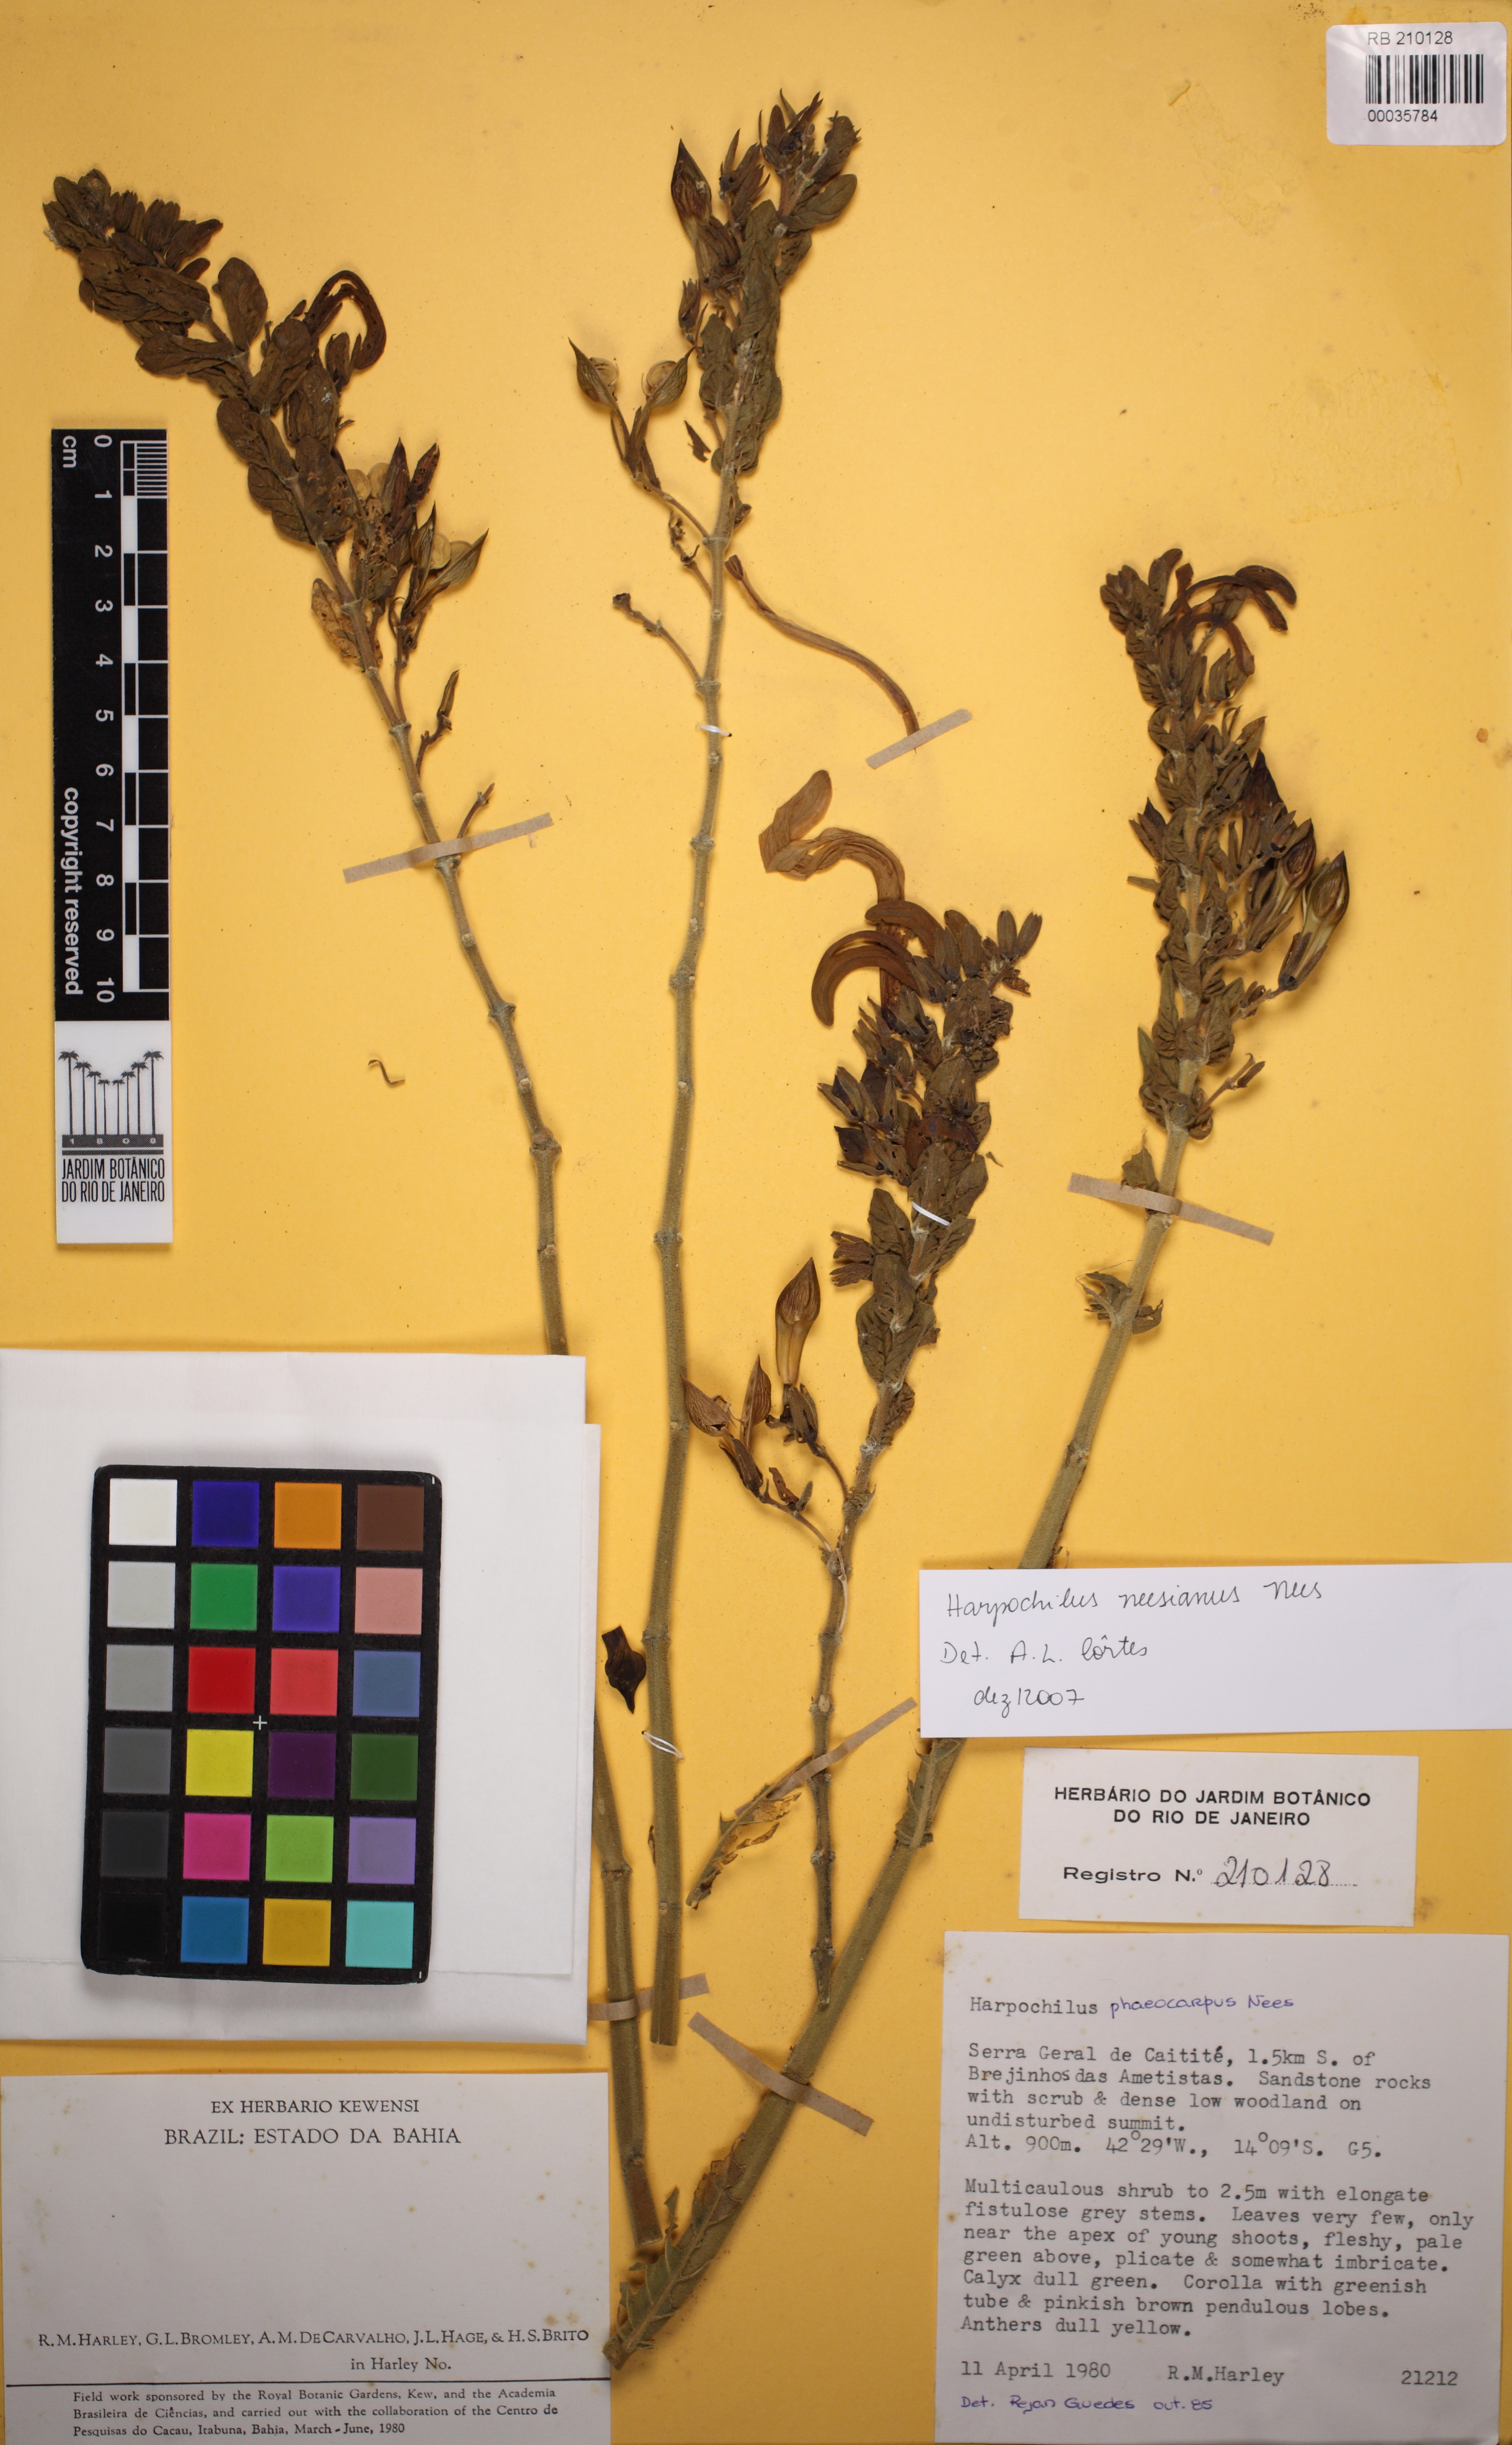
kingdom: Plantae
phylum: Tracheophyta
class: Magnoliopsida
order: Lamiales
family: Acanthaceae
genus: Harpochilus
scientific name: Harpochilus neesianus
